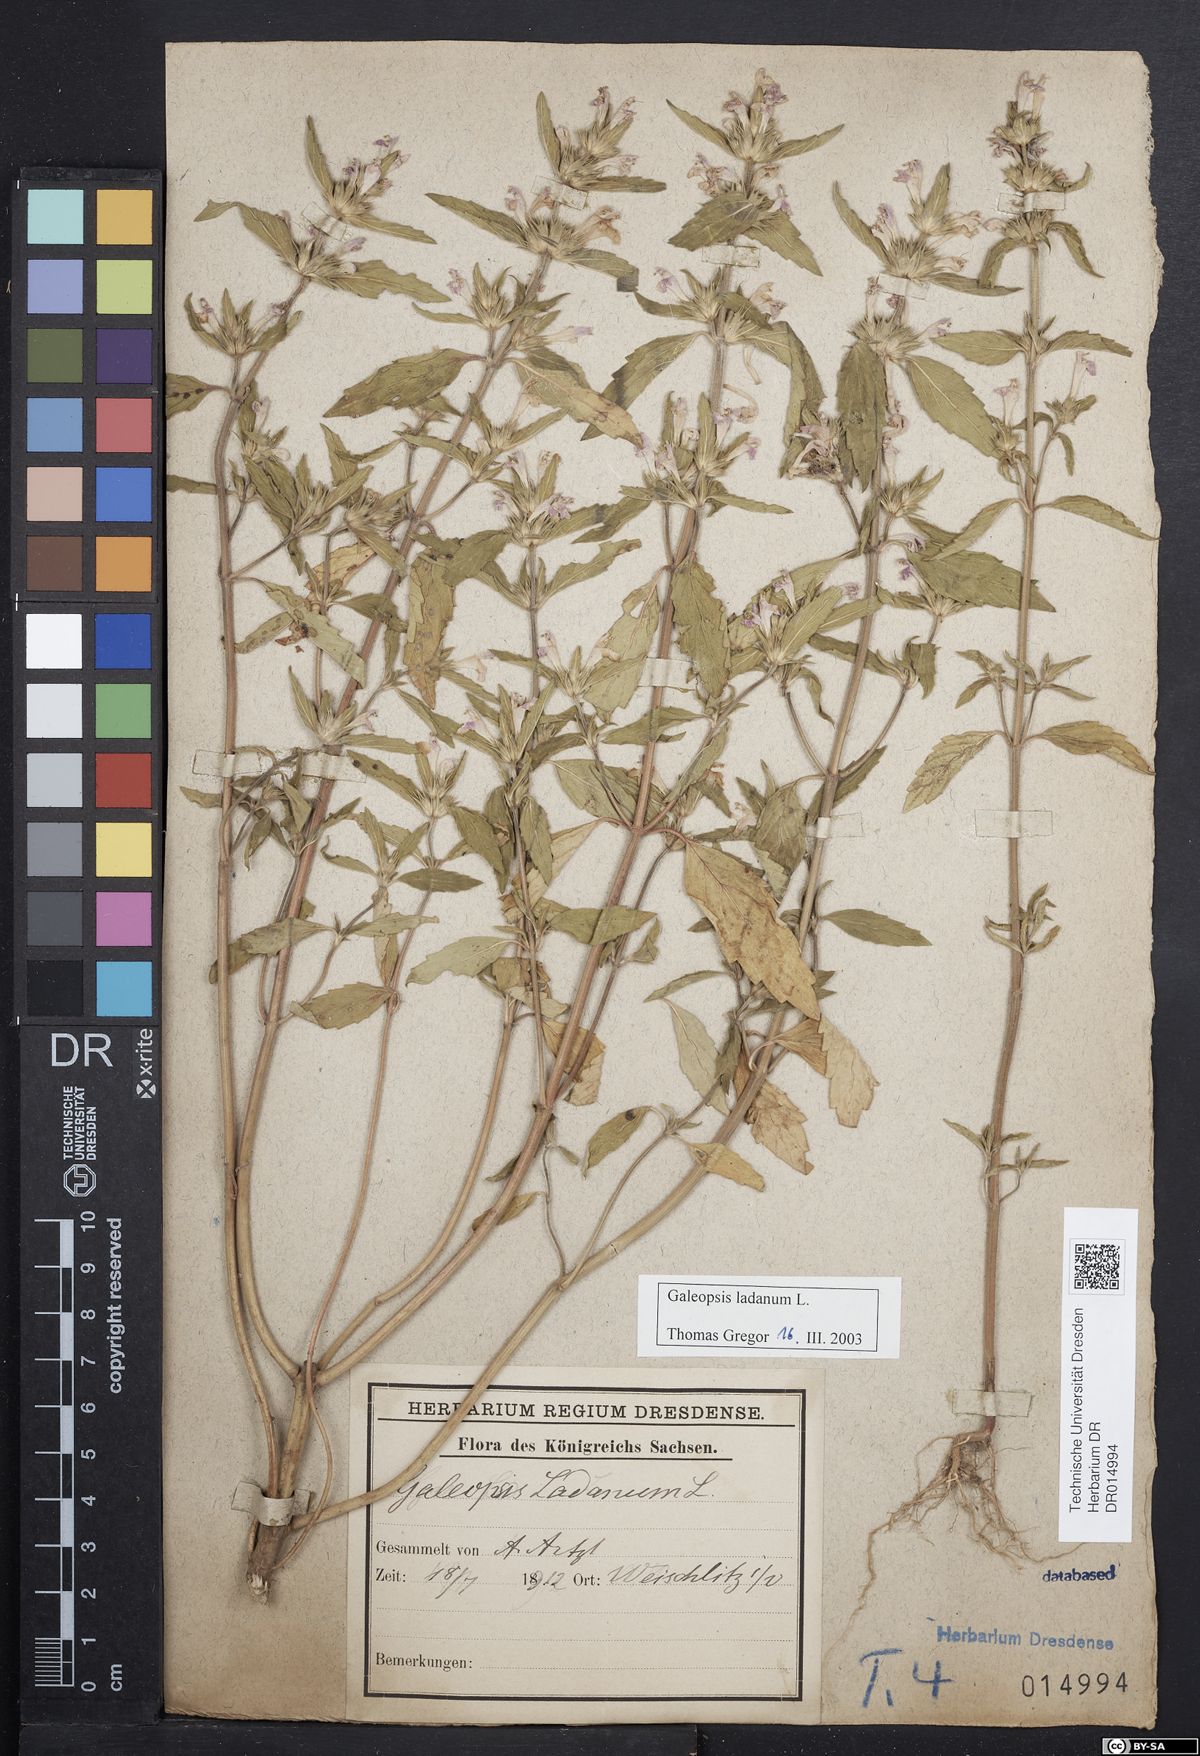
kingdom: Plantae
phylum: Tracheophyta
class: Magnoliopsida
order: Lamiales
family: Lamiaceae
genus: Galeopsis
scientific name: Galeopsis ladanum
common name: Broad-leaved hemp-nettle
